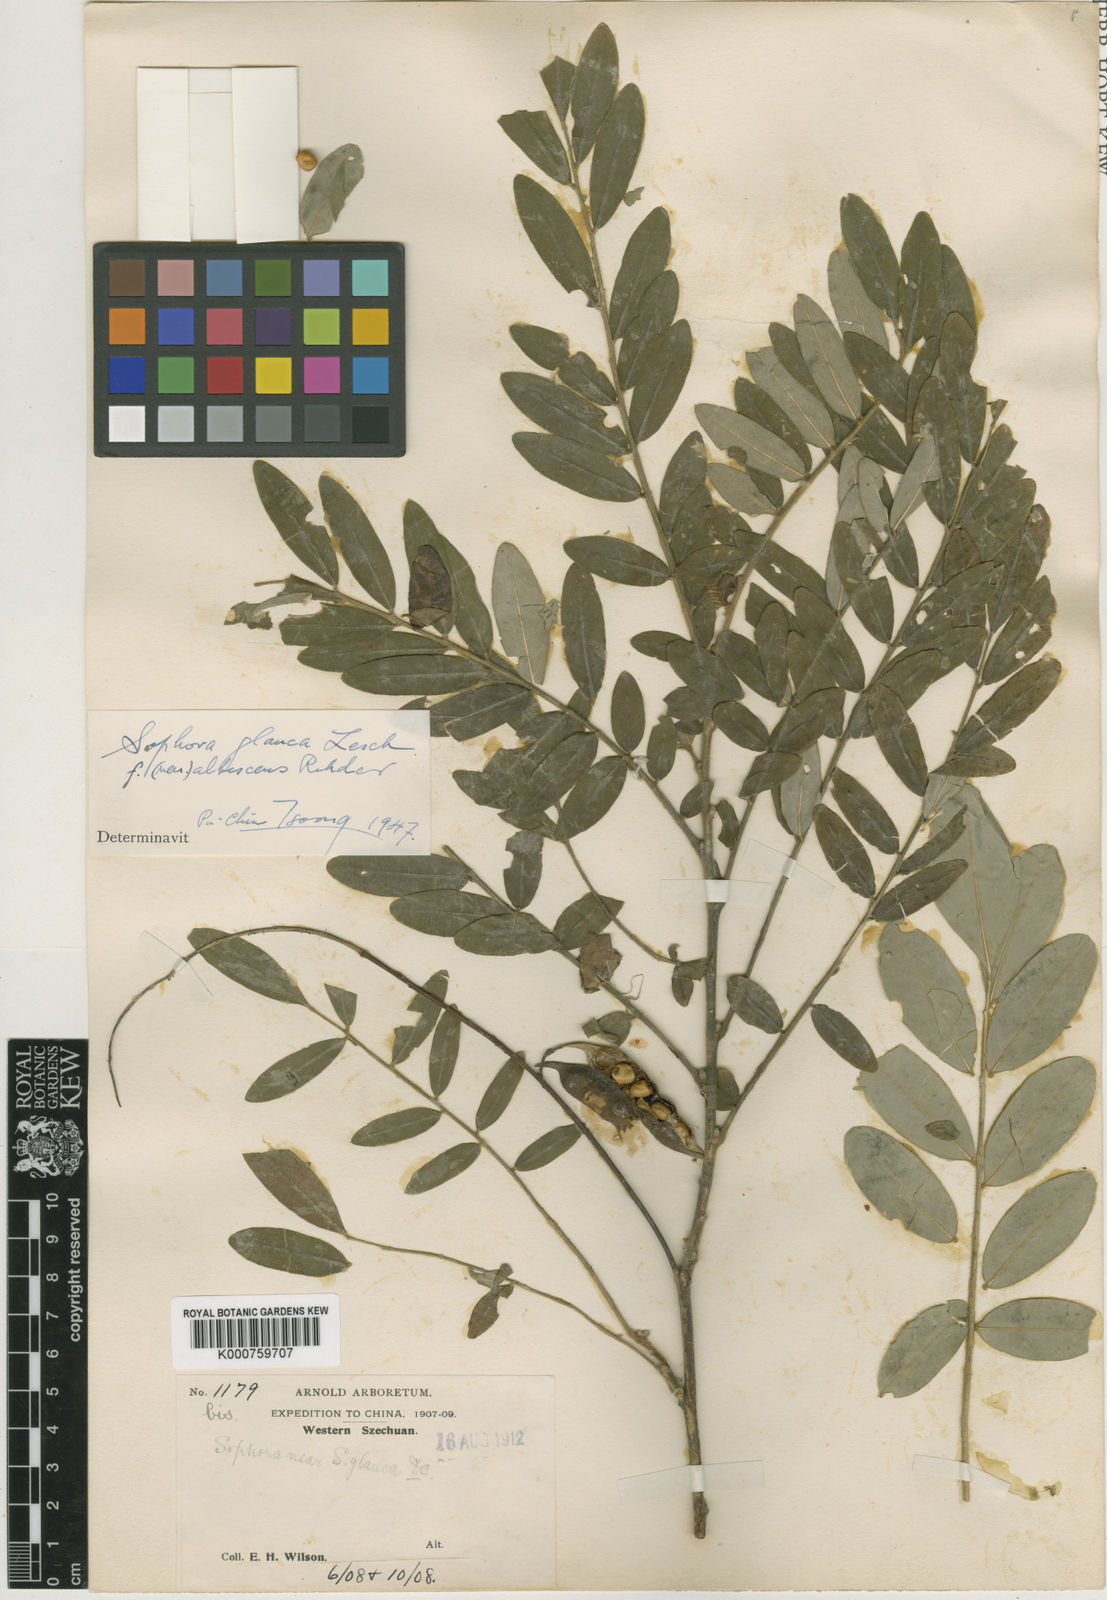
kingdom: Plantae
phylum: Tracheophyta
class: Magnoliopsida
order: Fabales
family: Fabaceae
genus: Sophora
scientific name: Sophora velutina
